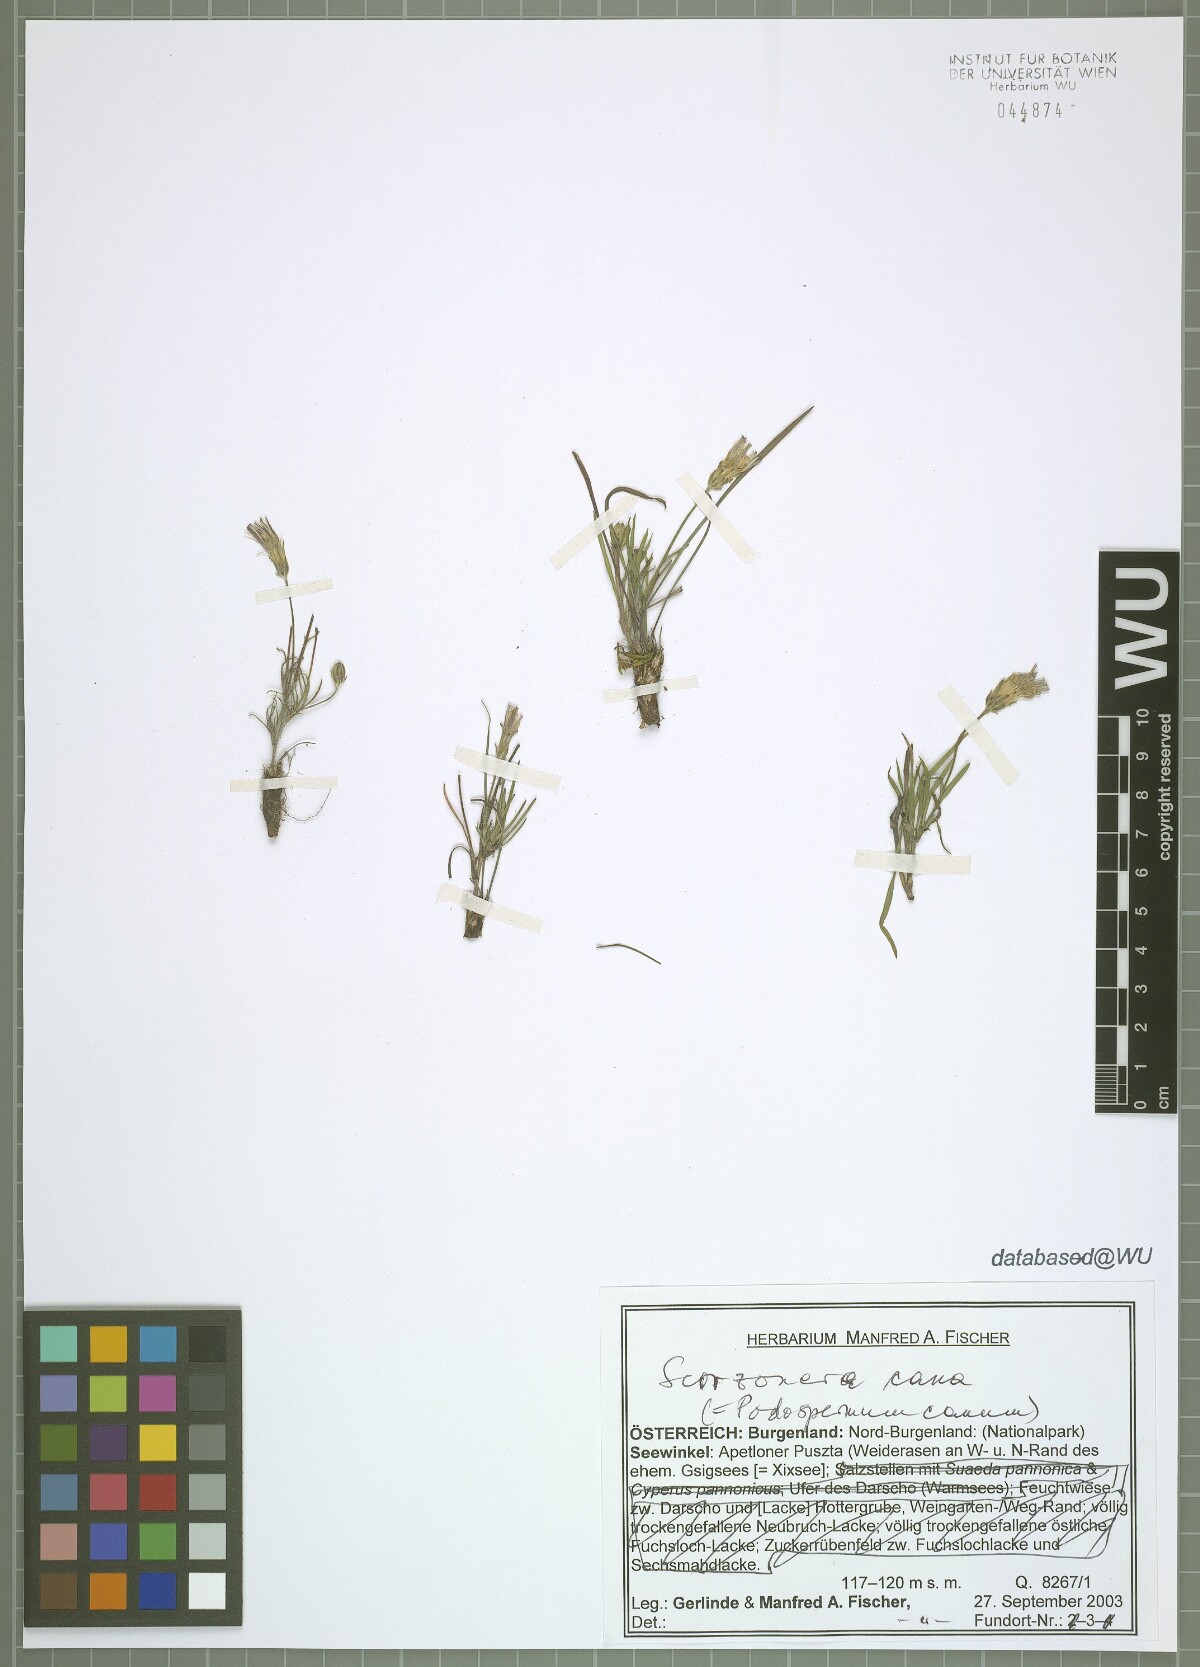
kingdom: Plantae
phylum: Tracheophyta
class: Magnoliopsida
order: Asterales
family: Asteraceae
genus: Scorzonera
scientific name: Scorzonera cana
